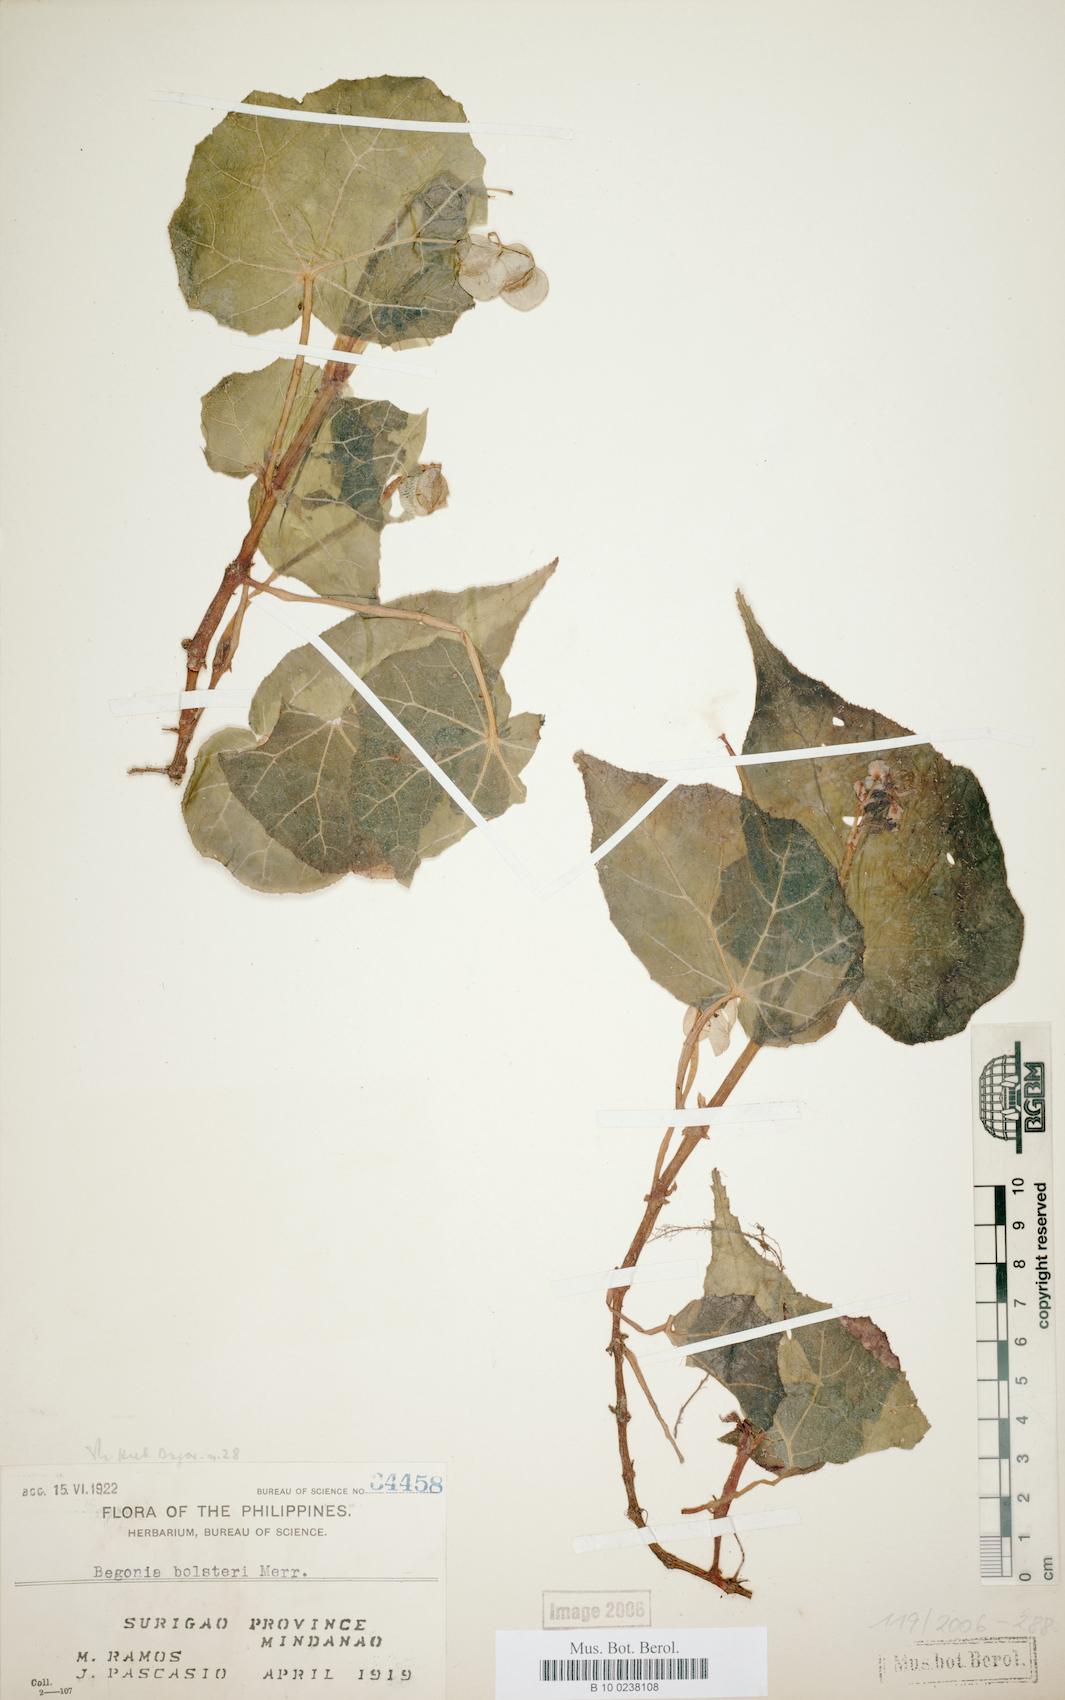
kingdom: Plantae
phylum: Tracheophyta
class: Magnoliopsida
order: Cucurbitales
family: Begoniaceae
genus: Begonia
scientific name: Begonia colorata
